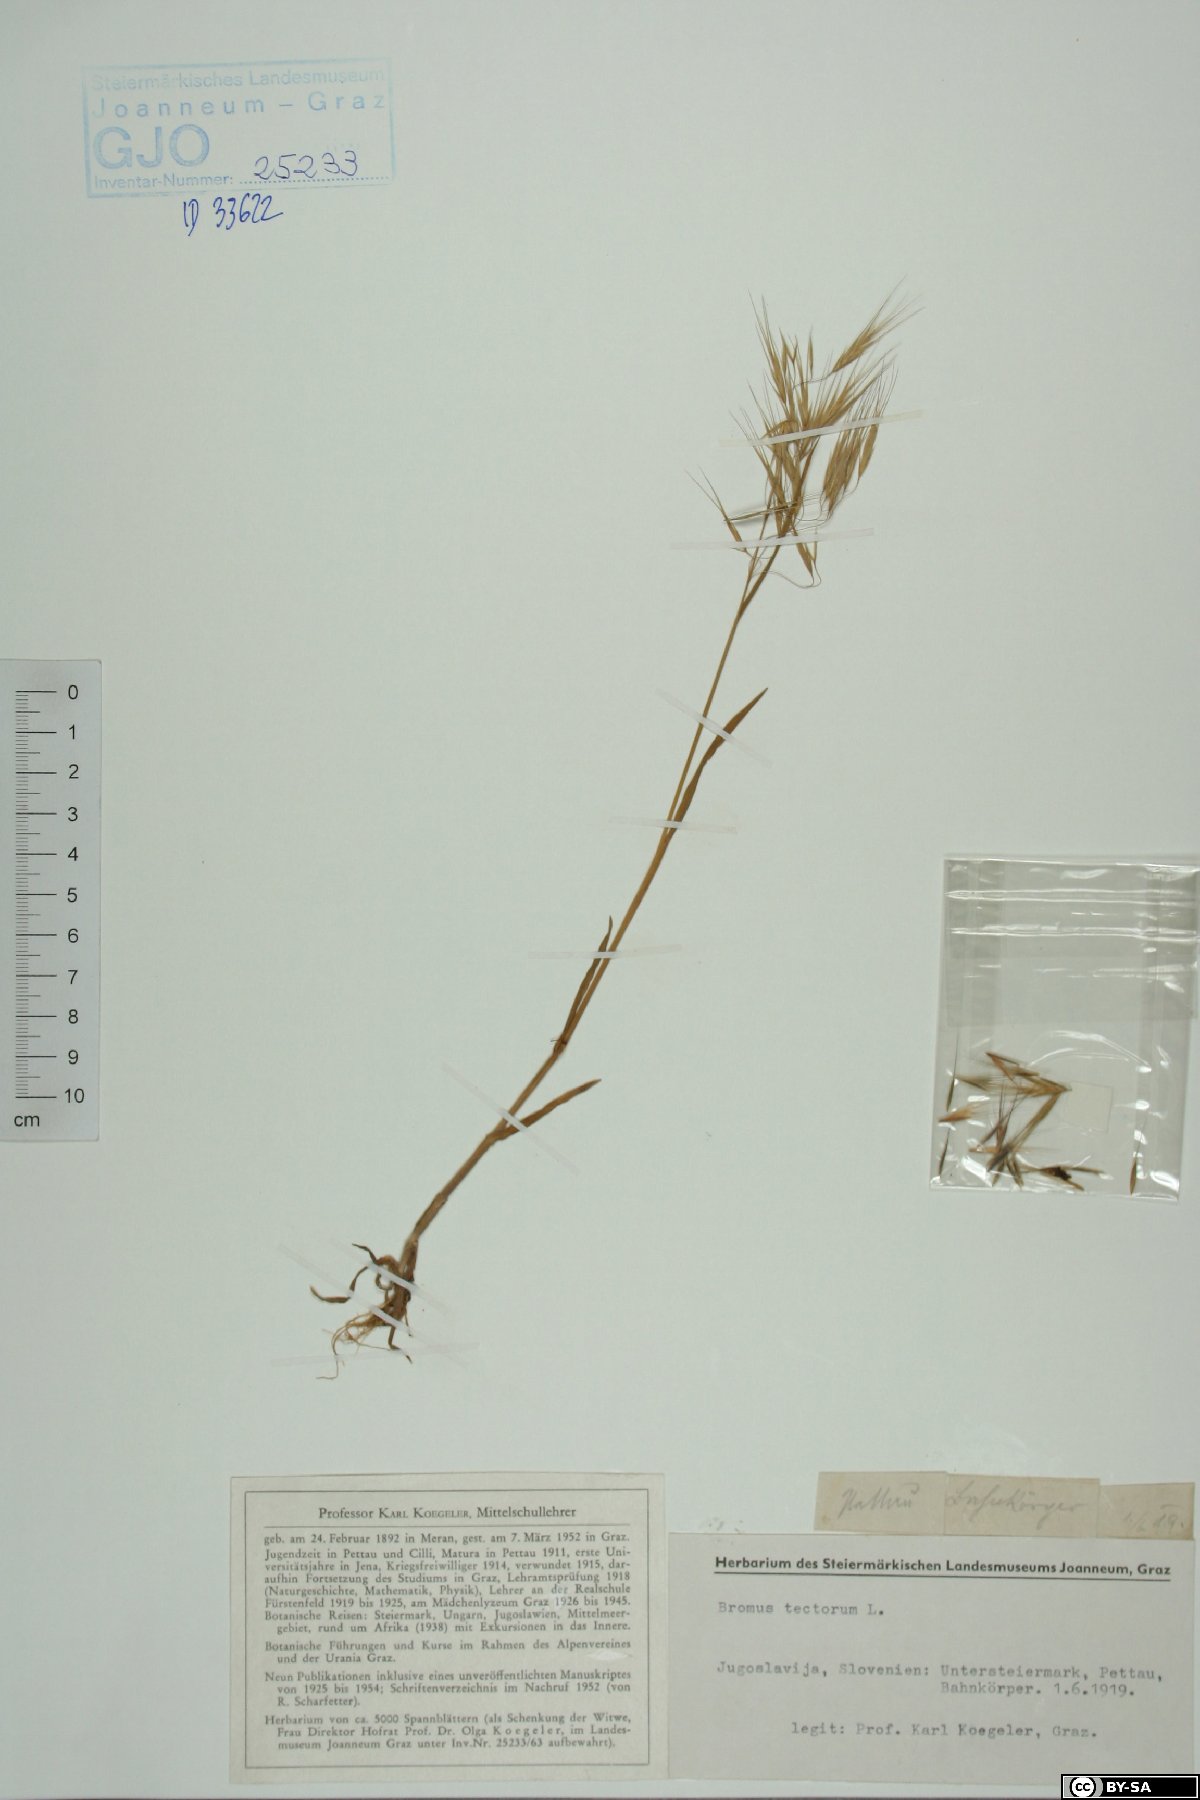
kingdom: Plantae
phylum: Tracheophyta
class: Liliopsida
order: Poales
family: Poaceae
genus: Bromus
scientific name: Bromus tectorum
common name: Cheatgrass
